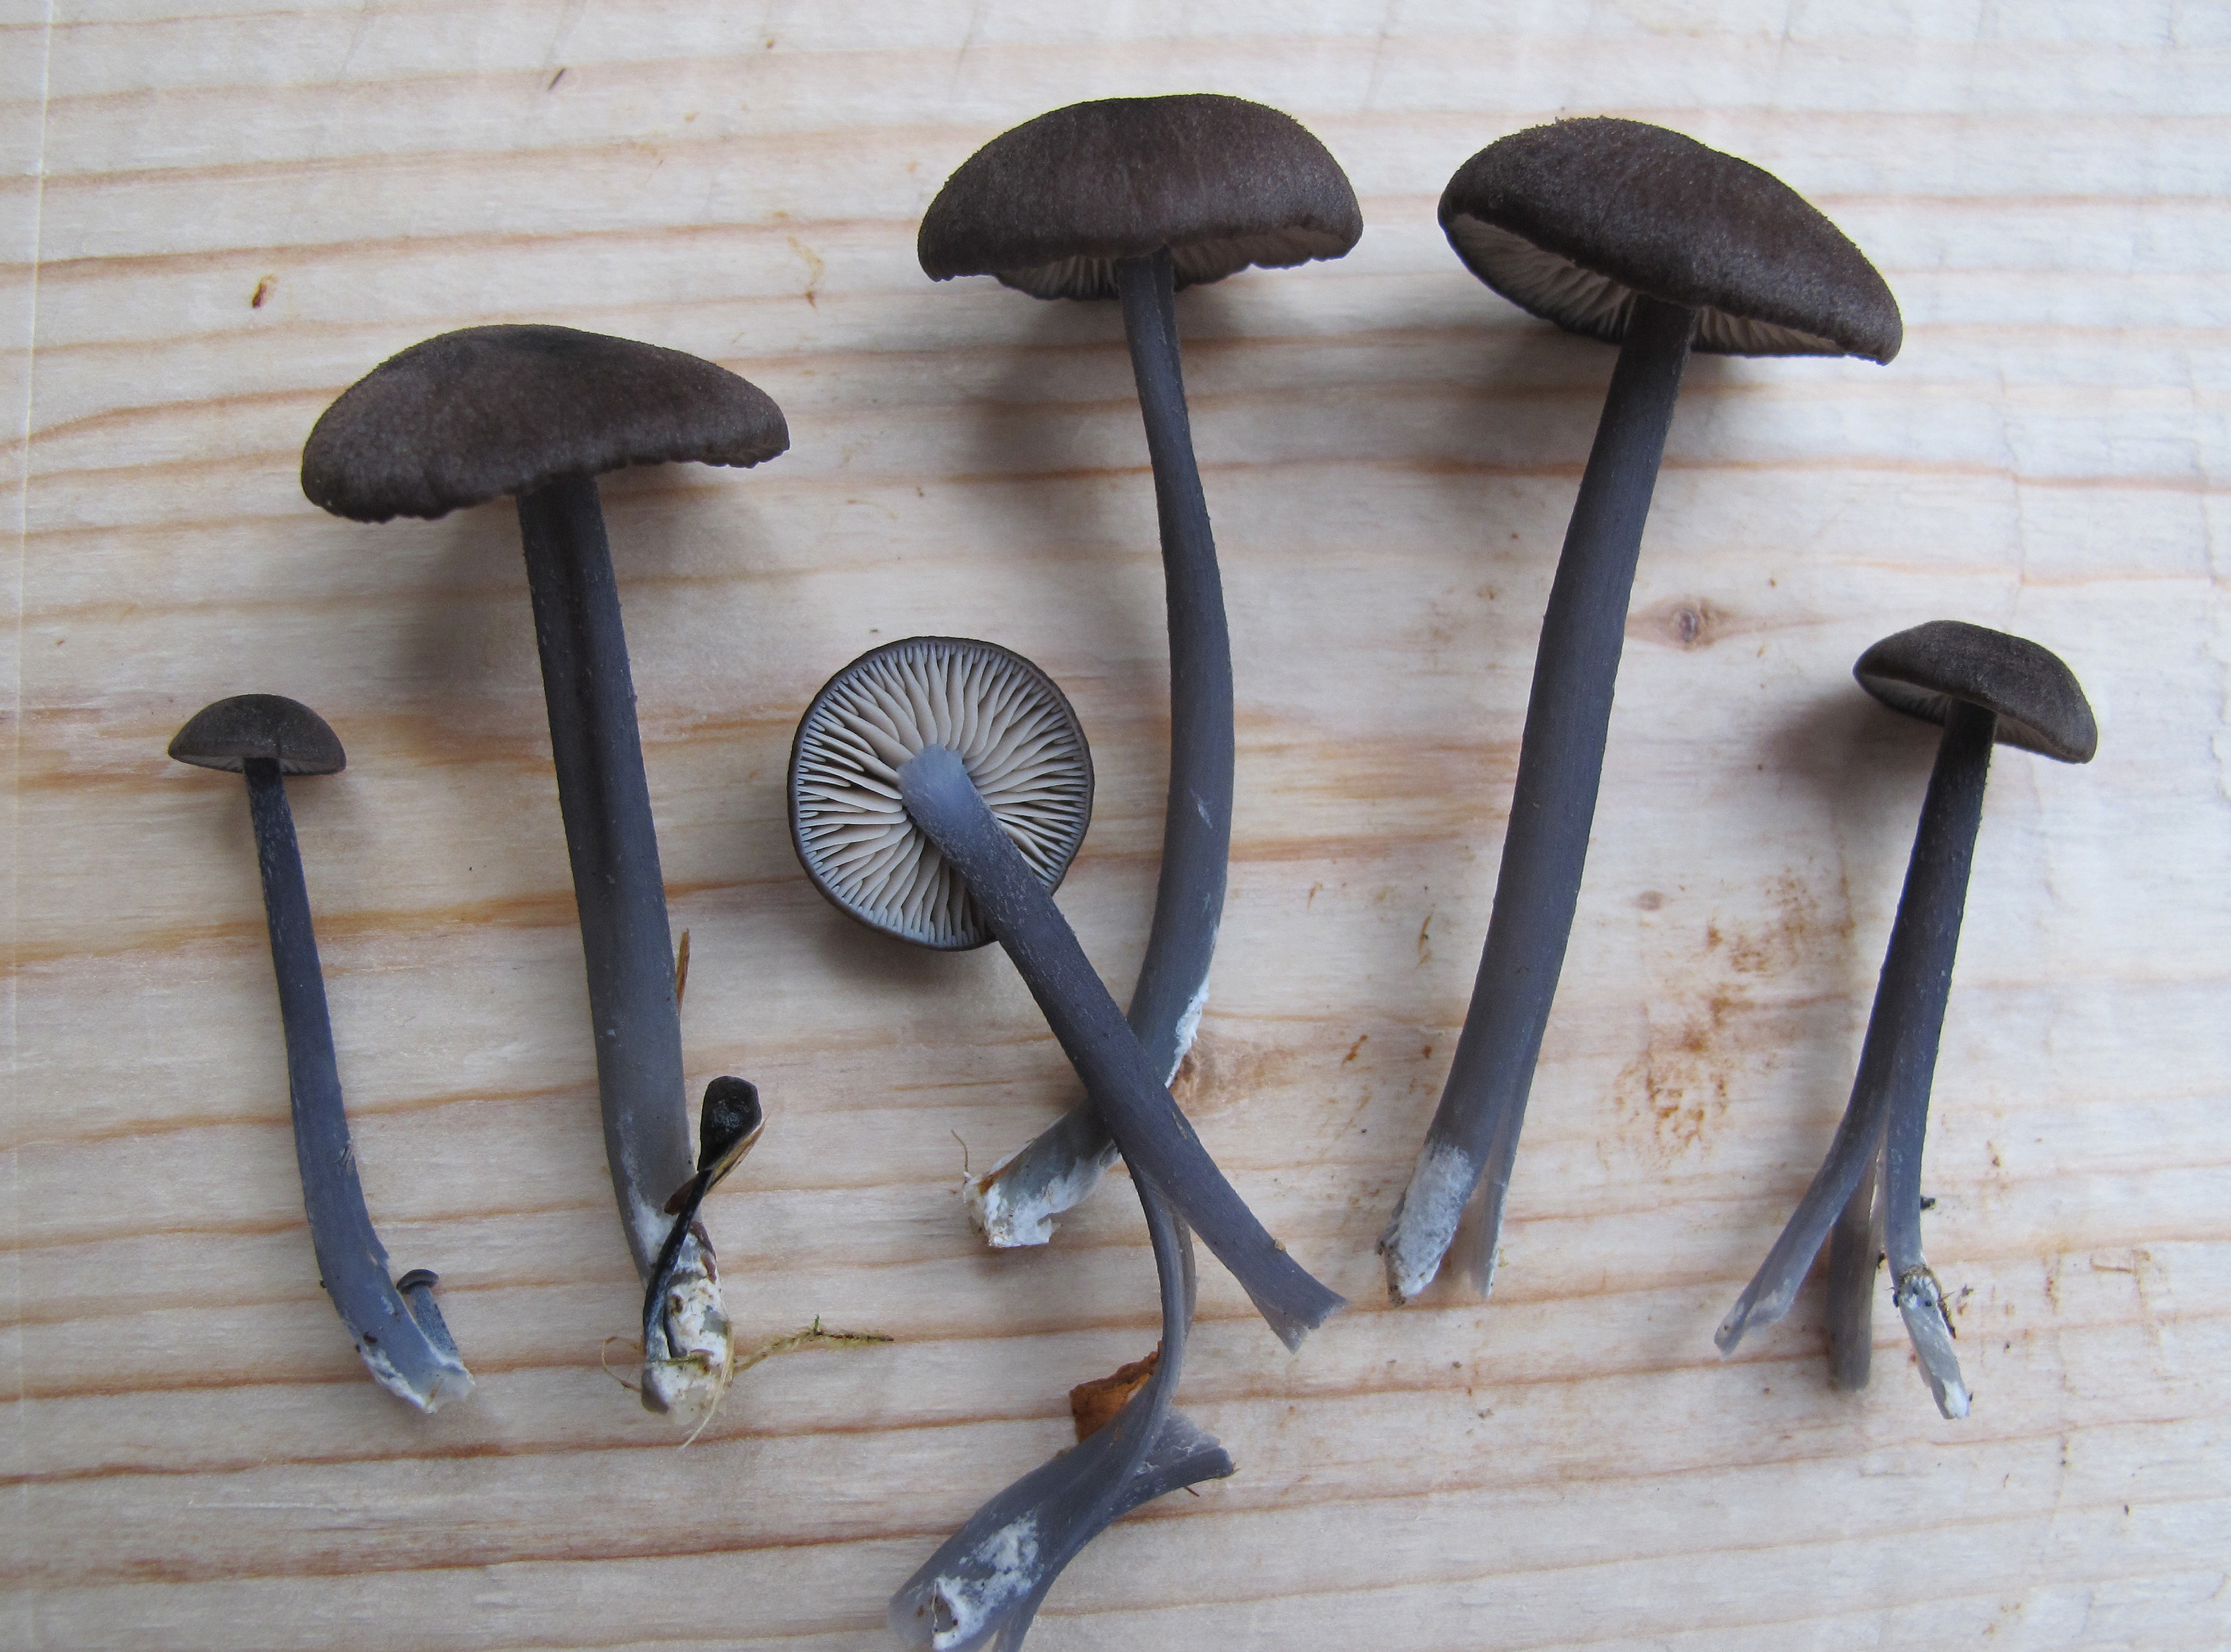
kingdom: Fungi
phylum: Basidiomycota
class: Agaricomycetes
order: Agaricales
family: Entolomataceae
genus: Entoloma
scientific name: Entoloma caeruleum
